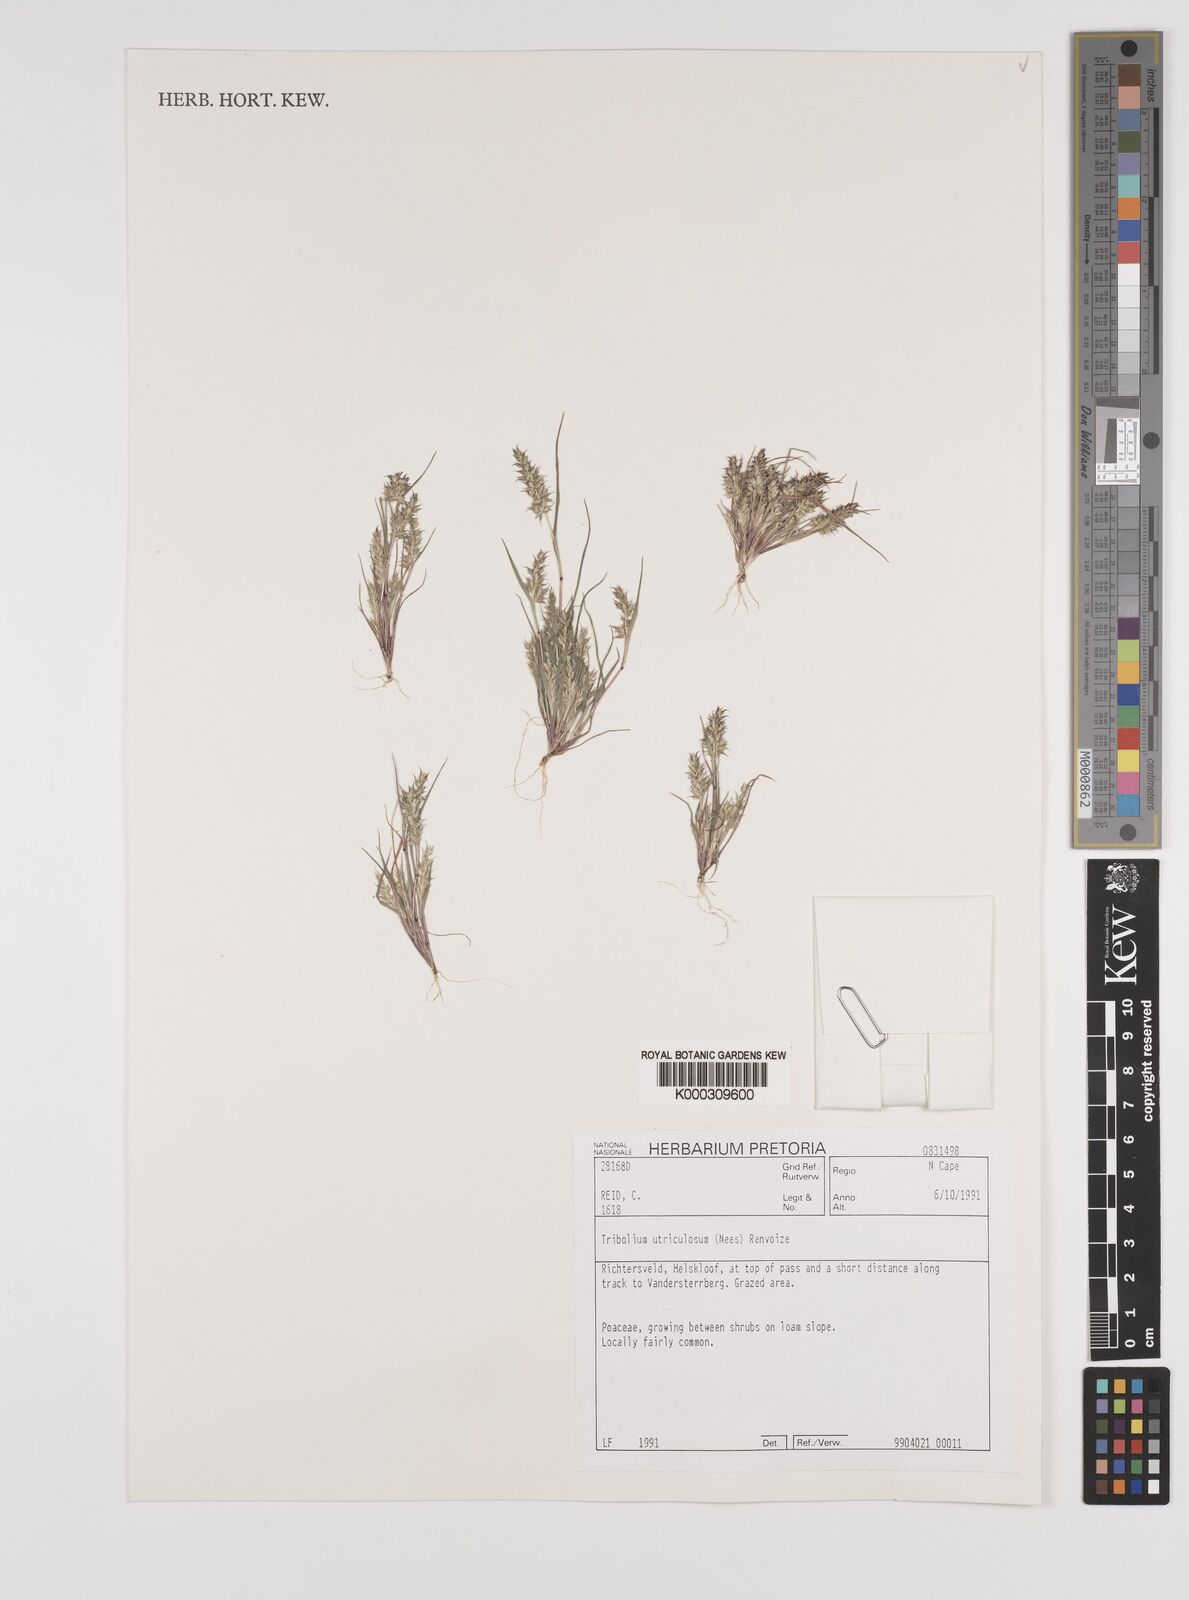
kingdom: Plantae
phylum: Tracheophyta
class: Liliopsida
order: Poales
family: Poaceae
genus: Tribolium
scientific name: Tribolium uniolae
